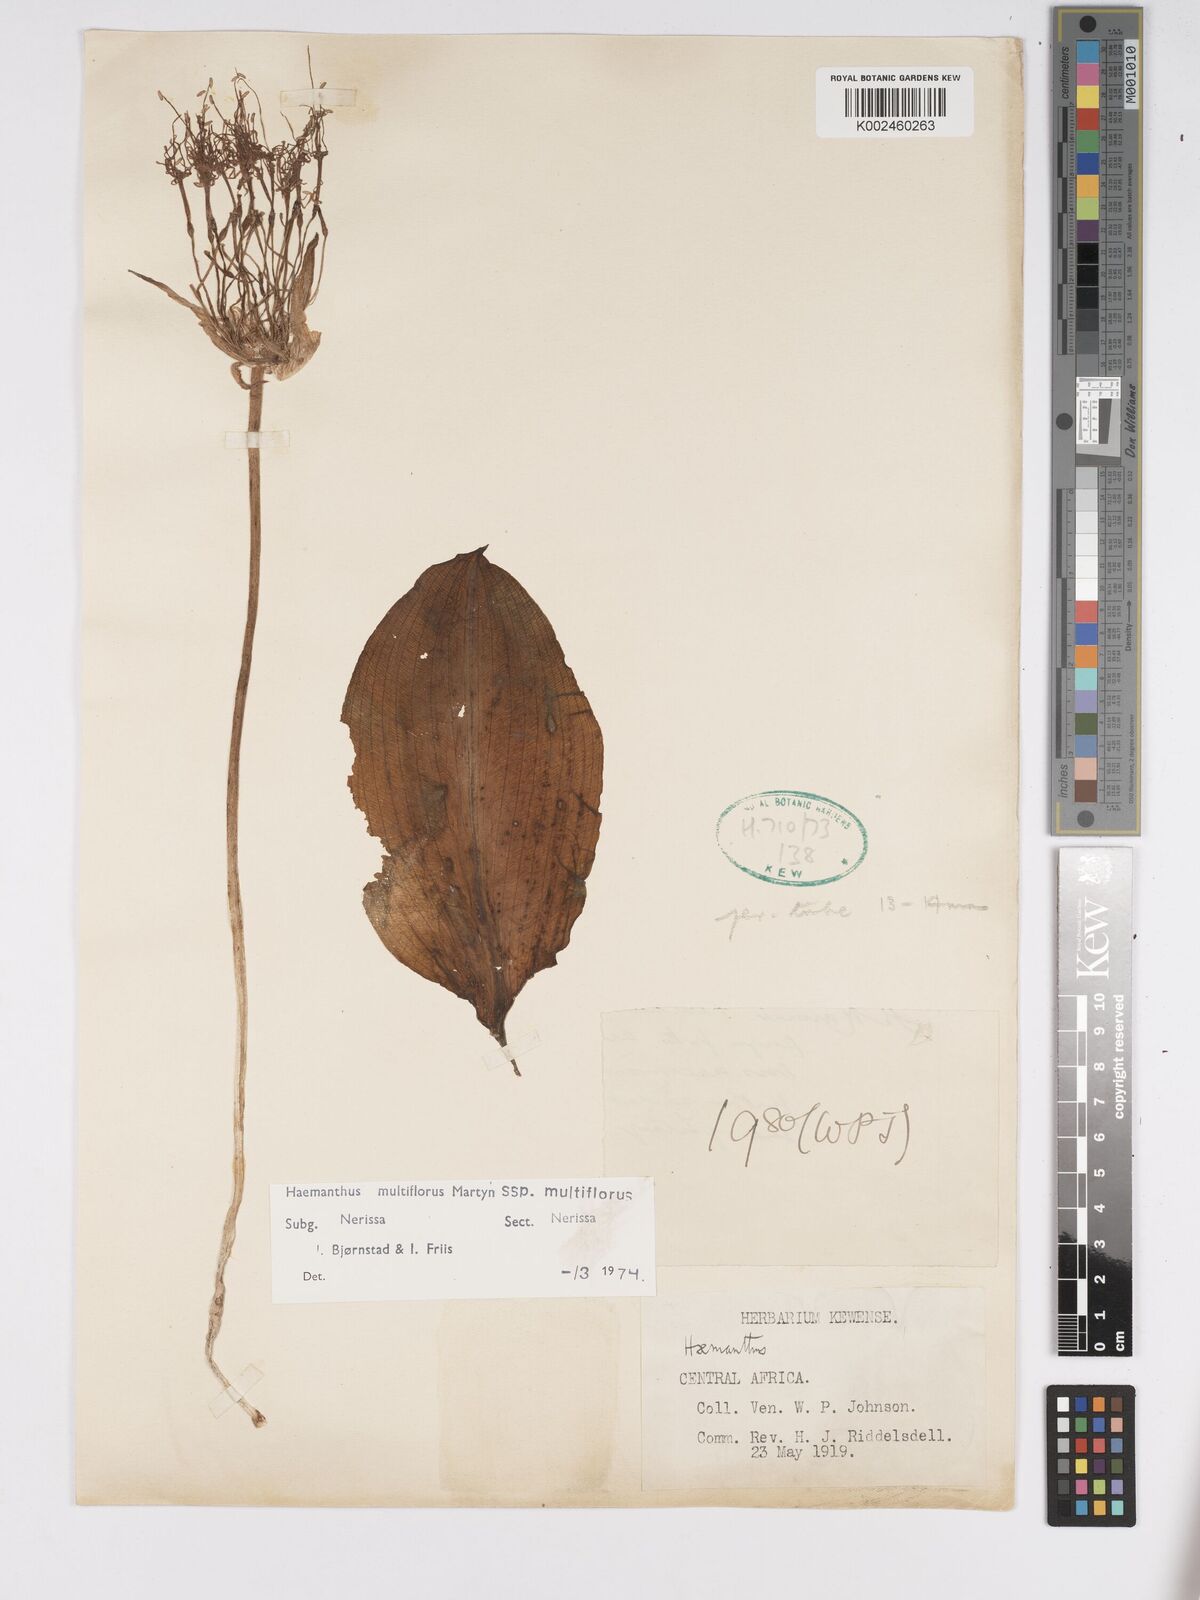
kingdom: Plantae
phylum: Tracheophyta
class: Liliopsida
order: Asparagales
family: Amaryllidaceae
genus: Scadoxus
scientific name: Scadoxus multiflorus
